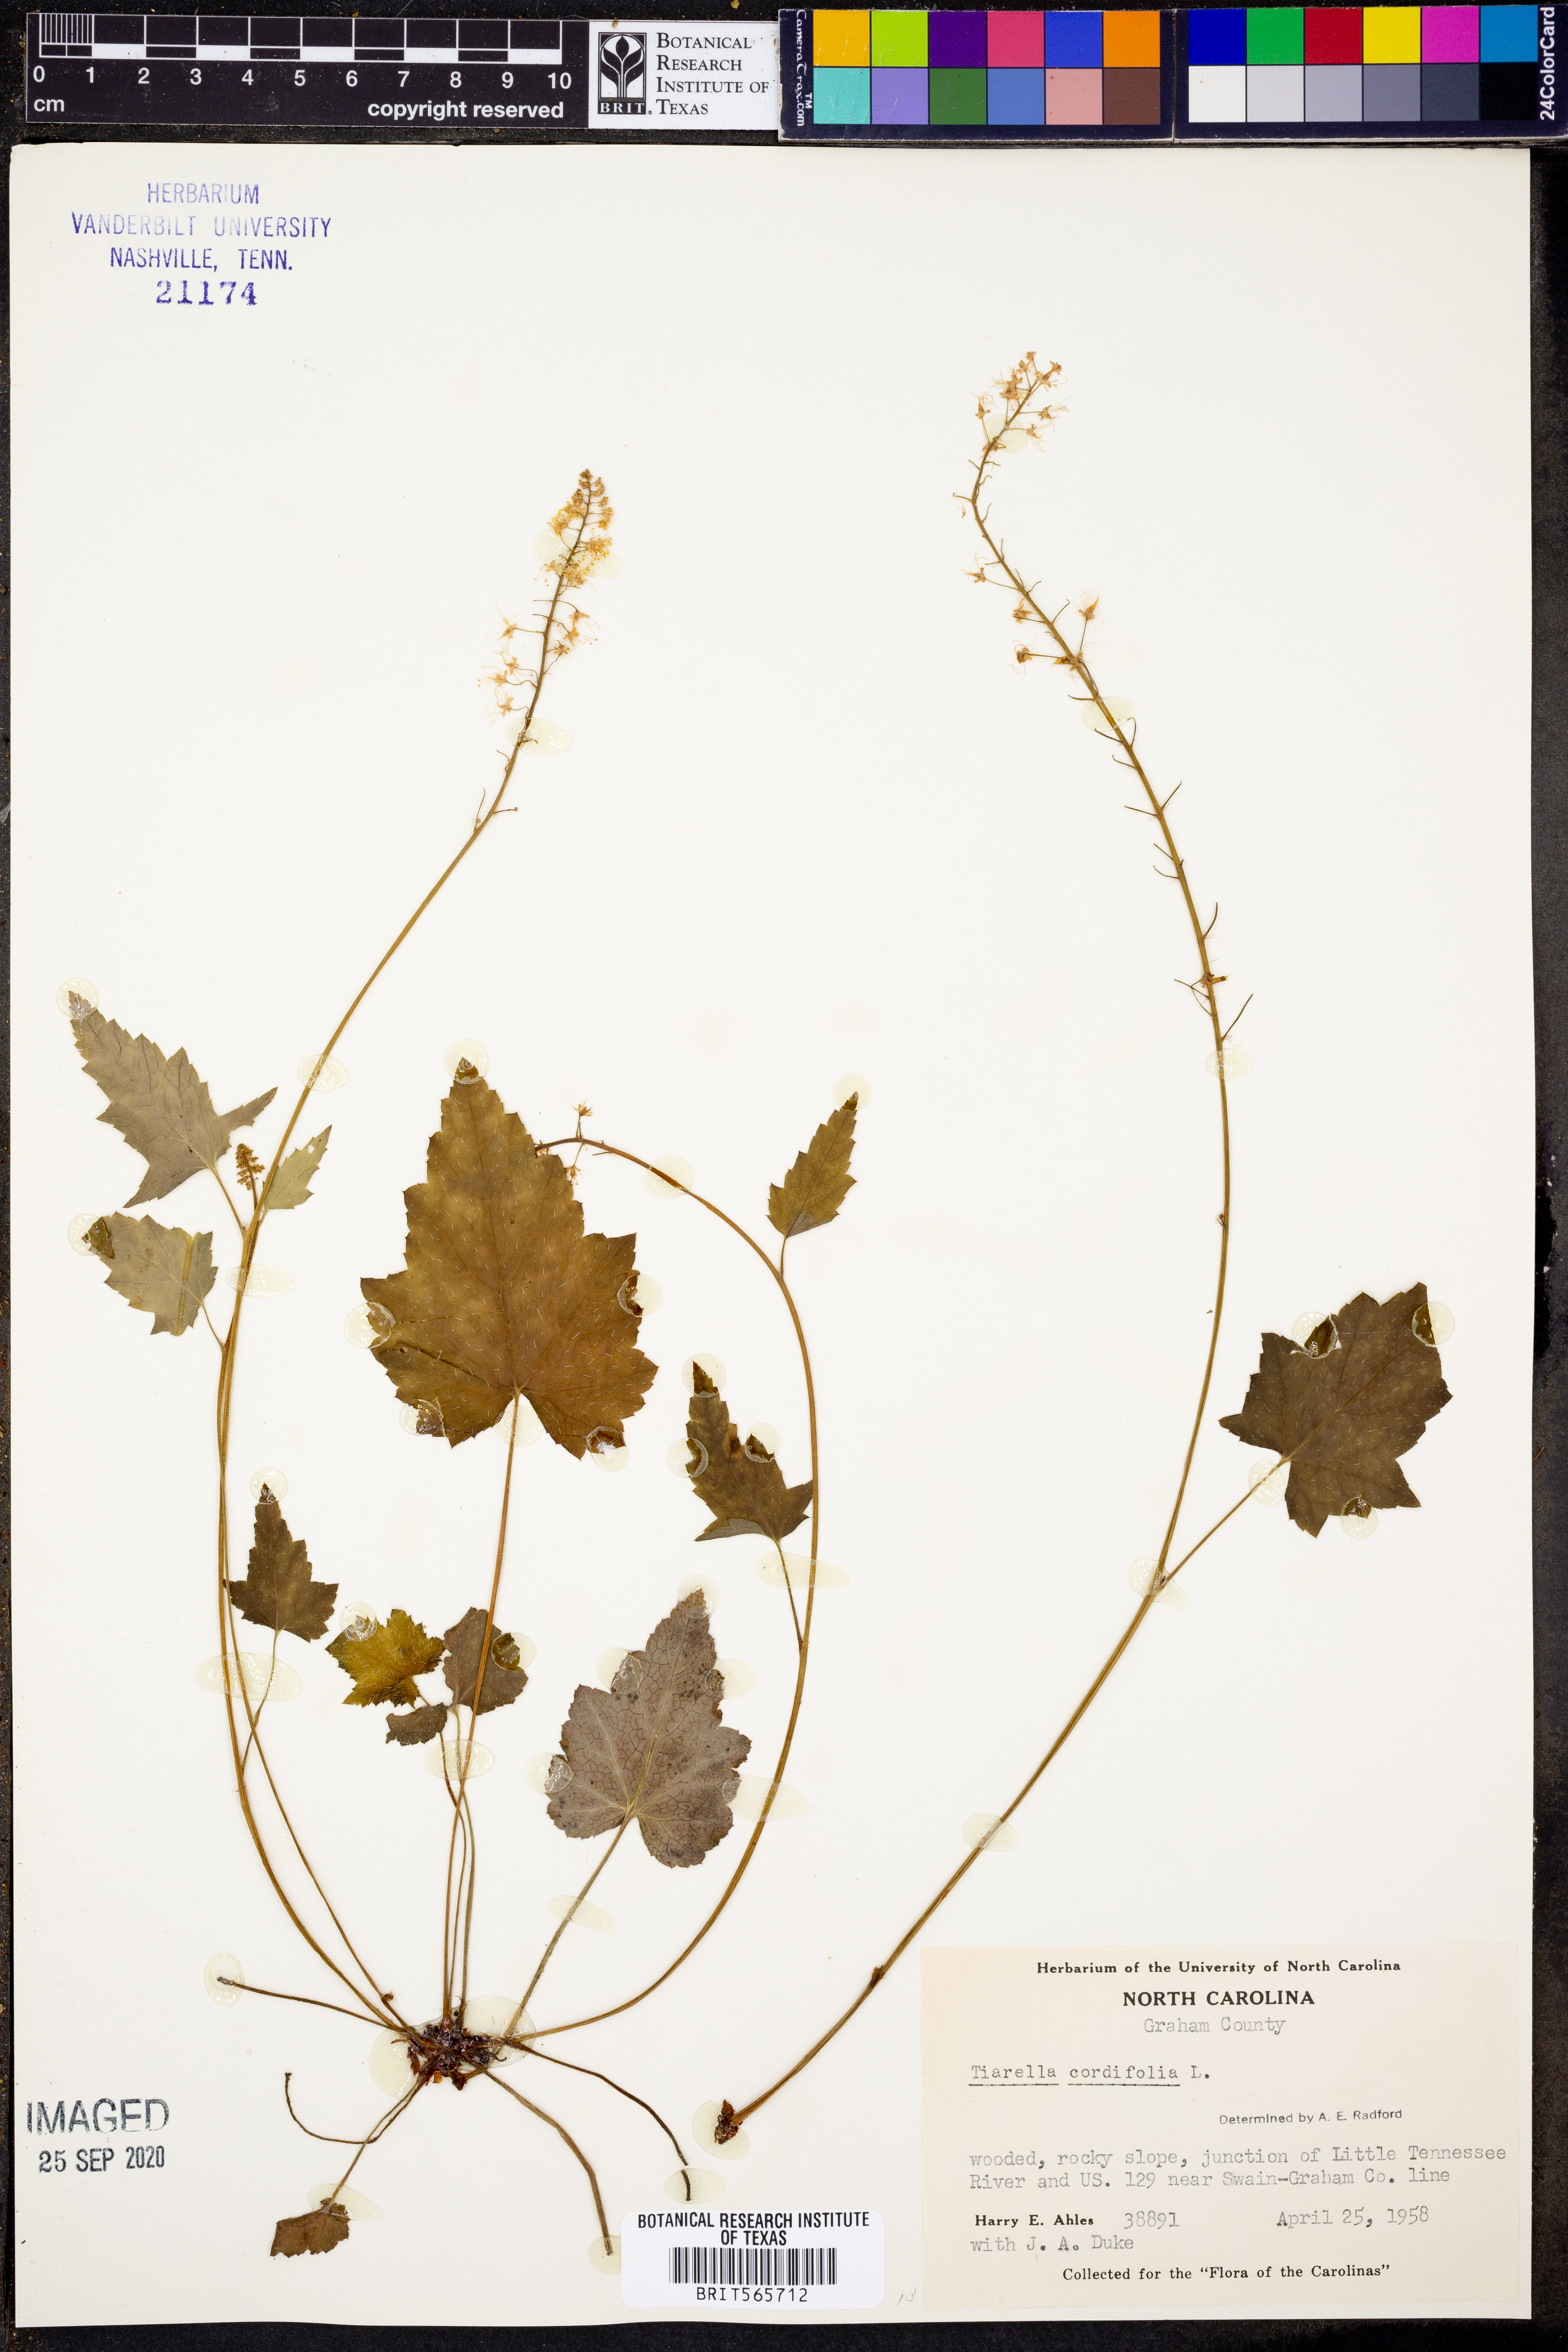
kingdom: Plantae
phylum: Tracheophyta
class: Magnoliopsida
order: Saxifragales
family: Saxifragaceae
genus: Tiarella
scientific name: Tiarella cordifolia
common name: Foamflower
